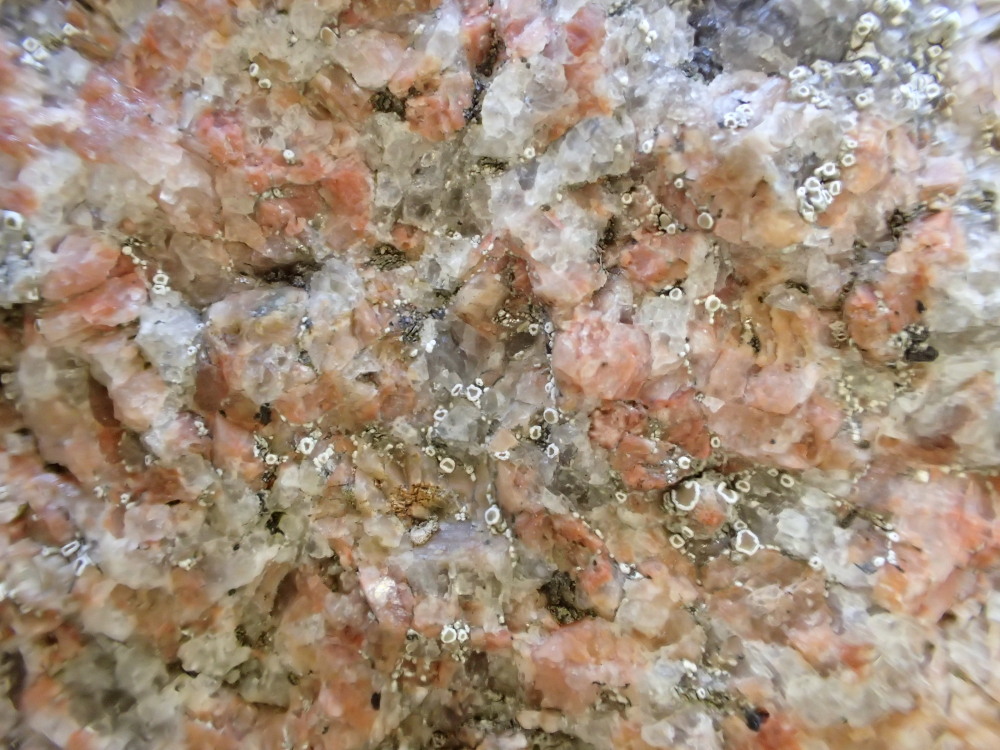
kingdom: Fungi
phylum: Ascomycota
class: Lecanoromycetes
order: Lecanorales
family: Lecanoraceae
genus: Polyozosia
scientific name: Polyozosia dispersa
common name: spredt kantskivelav
